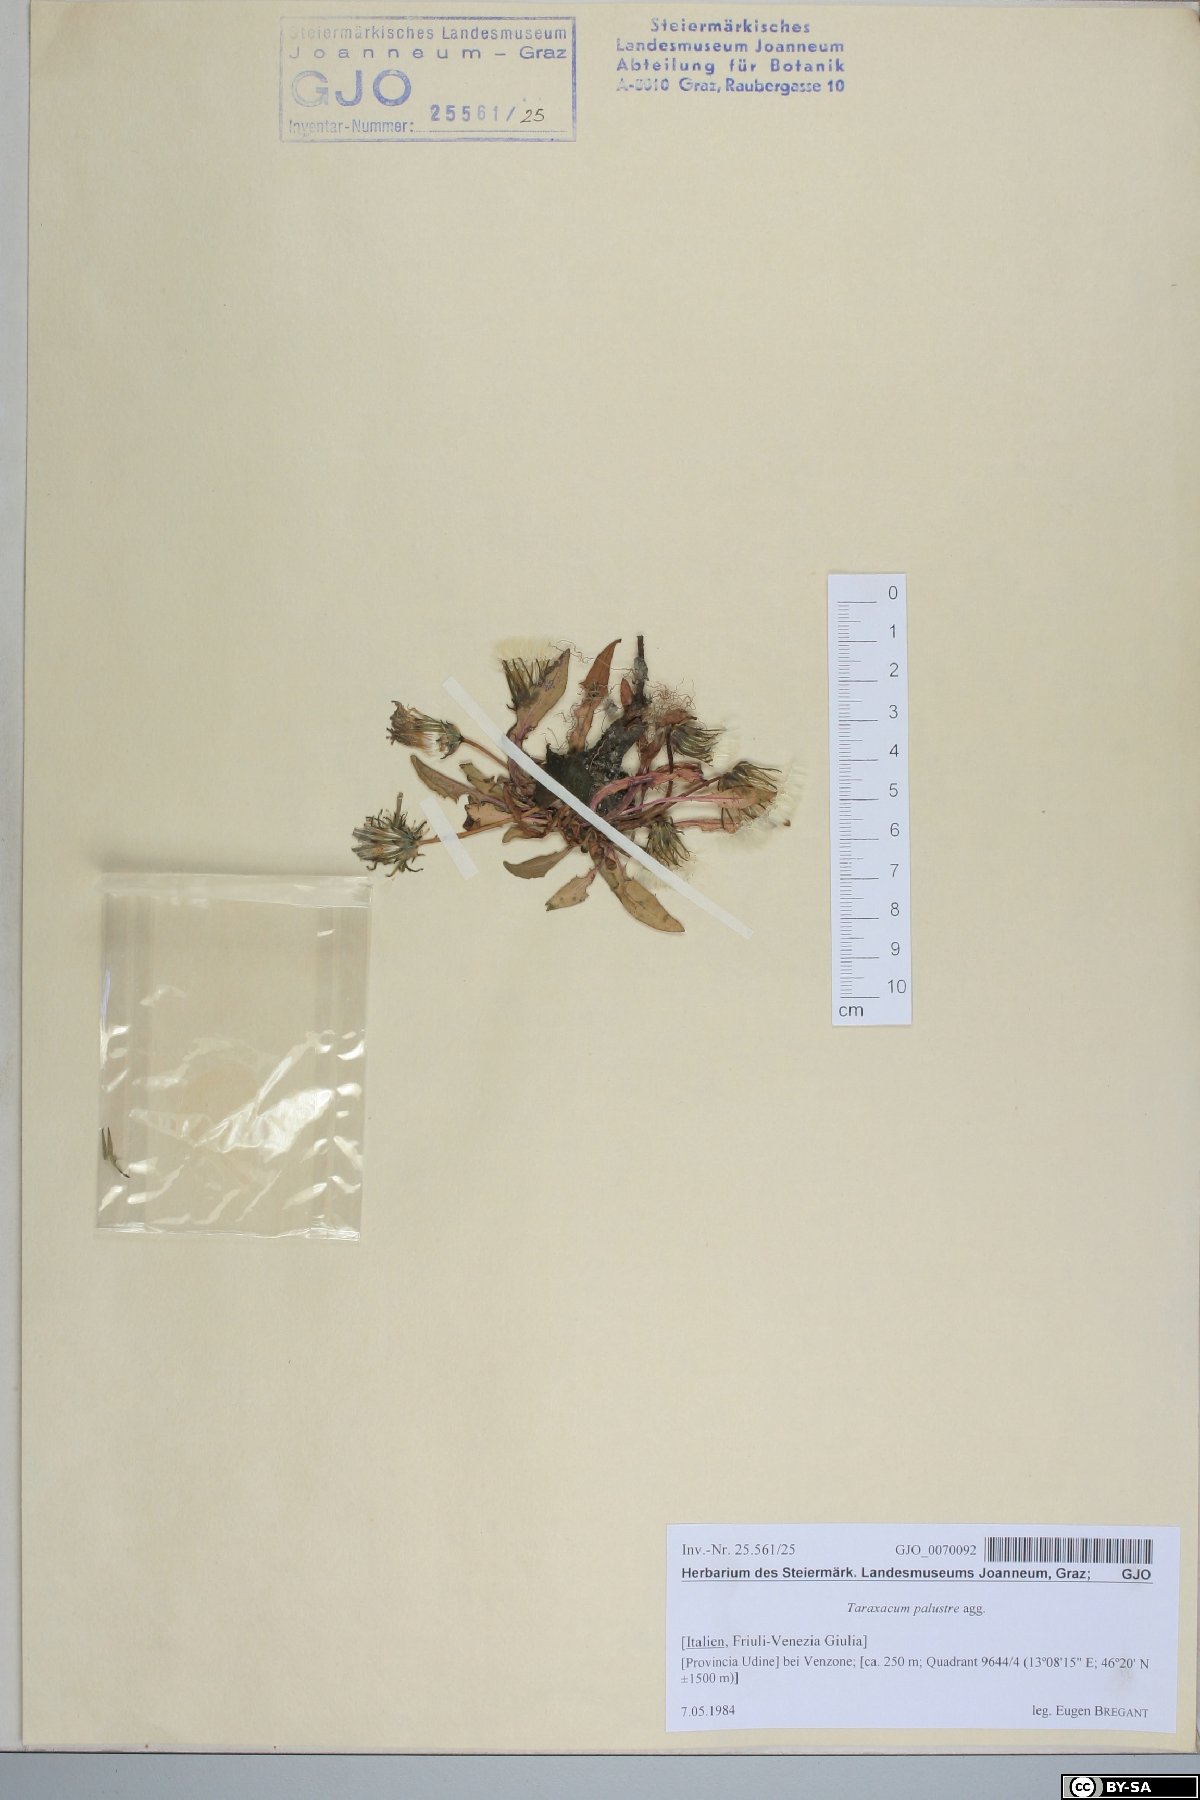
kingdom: Plantae
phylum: Tracheophyta
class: Magnoliopsida
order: Asterales
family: Asteraceae
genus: Taraxacum
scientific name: Taraxacum palustre
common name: Marsh dandelion
